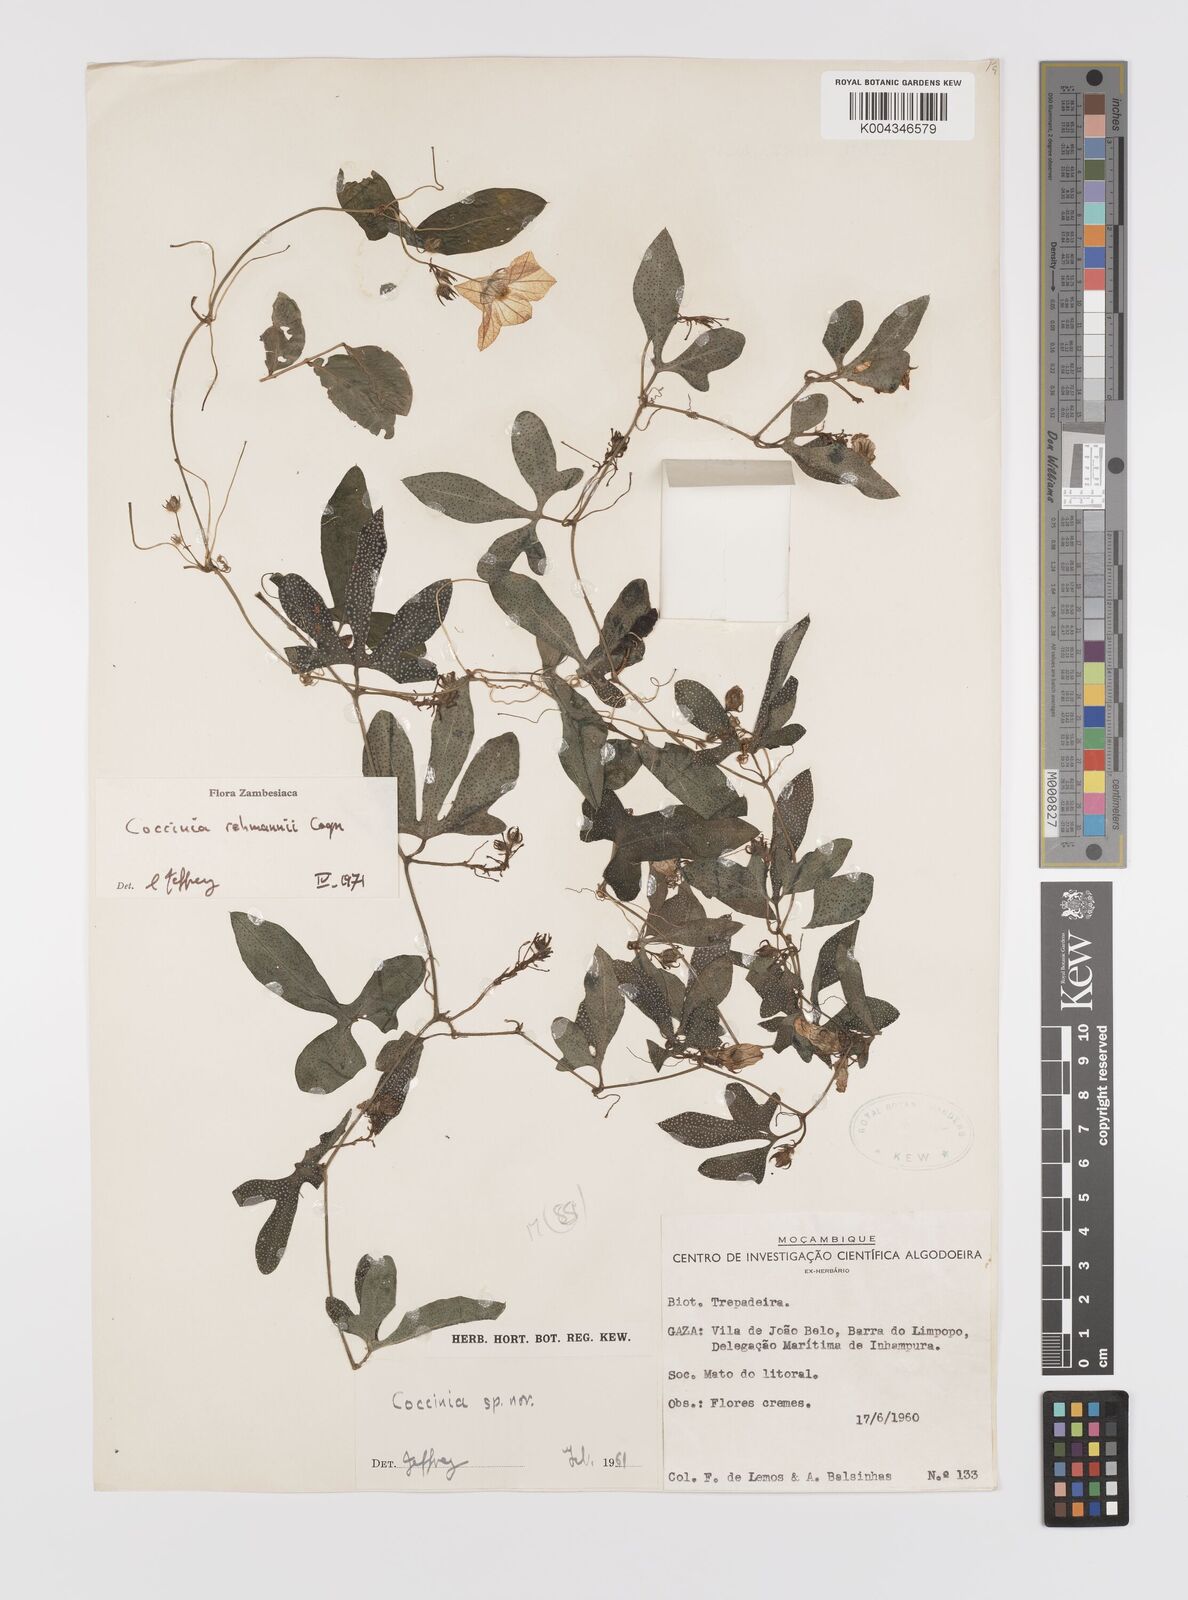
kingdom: Plantae
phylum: Tracheophyta
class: Magnoliopsida
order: Cucurbitales
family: Cucurbitaceae
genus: Coccinia
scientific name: Coccinia rehmannii
